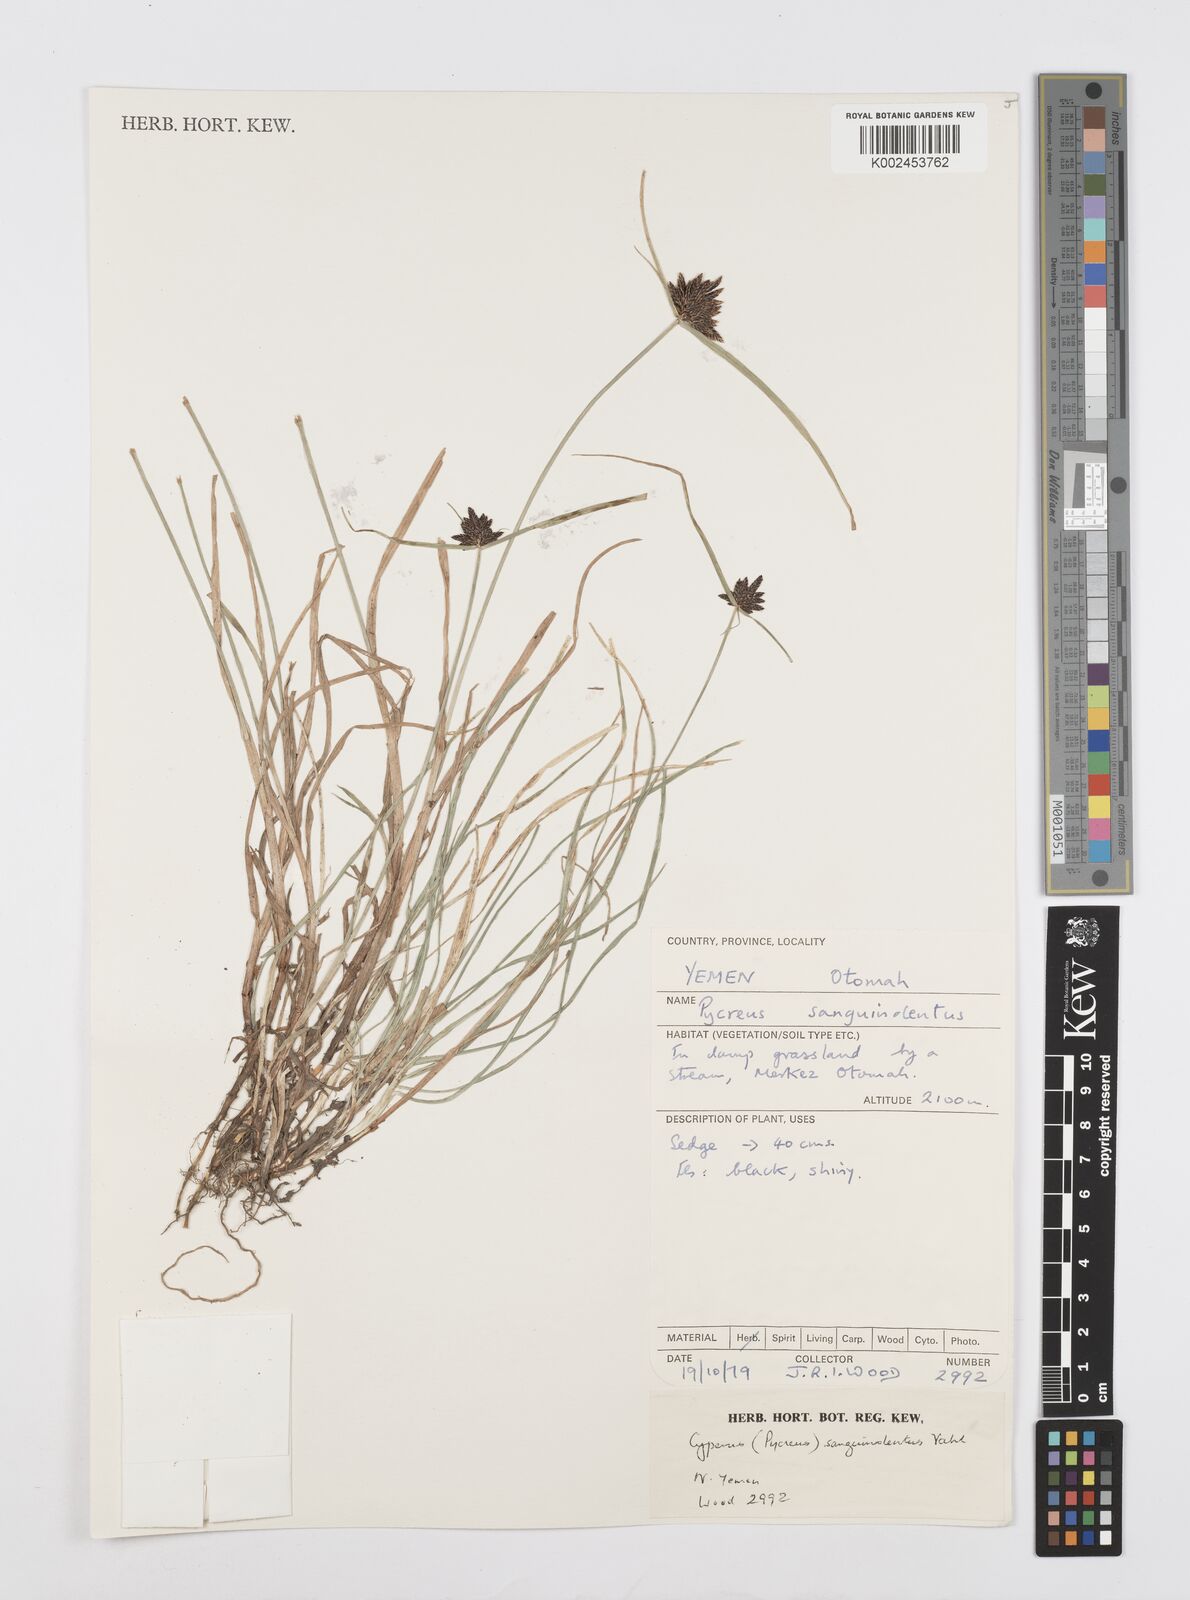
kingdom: Plantae
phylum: Tracheophyta
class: Liliopsida
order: Poales
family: Cyperaceae
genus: Cyperus
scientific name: Cyperus sanguinolentus
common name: Purpleglume flatsedge
